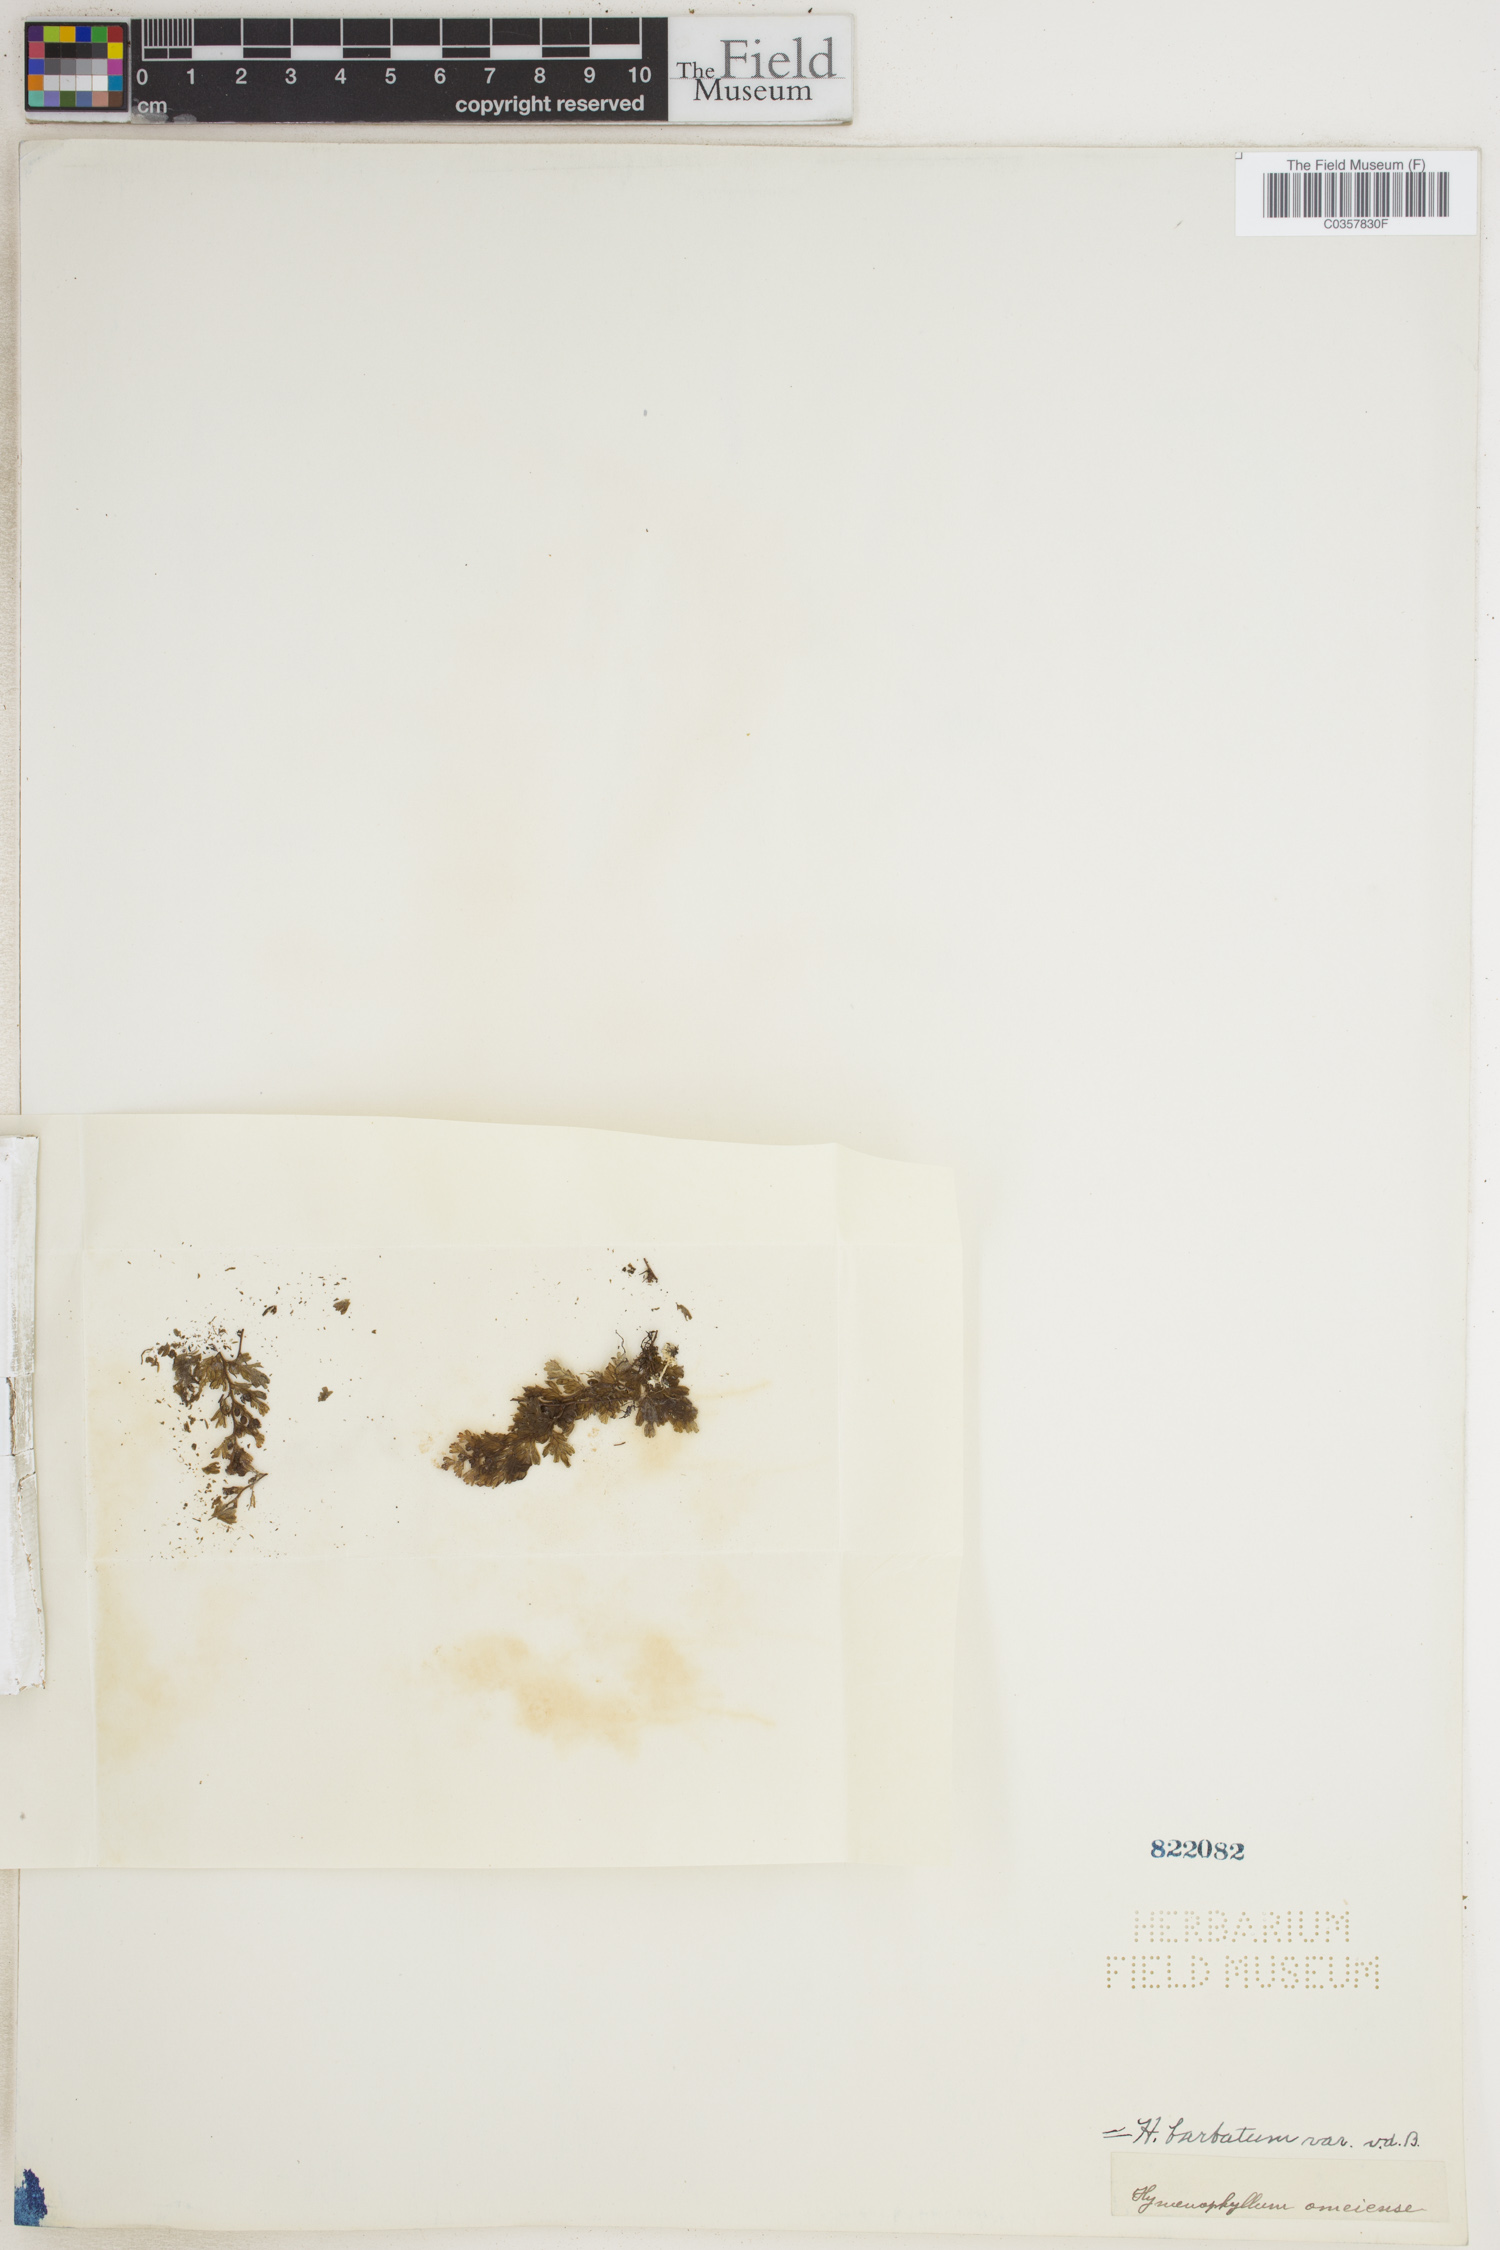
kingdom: Plantae
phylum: Tracheophyta
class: Polypodiopsida
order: Hymenophyllales
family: Hymenophyllaceae
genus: Hymenophyllum
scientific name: Hymenophyllum barbatum
